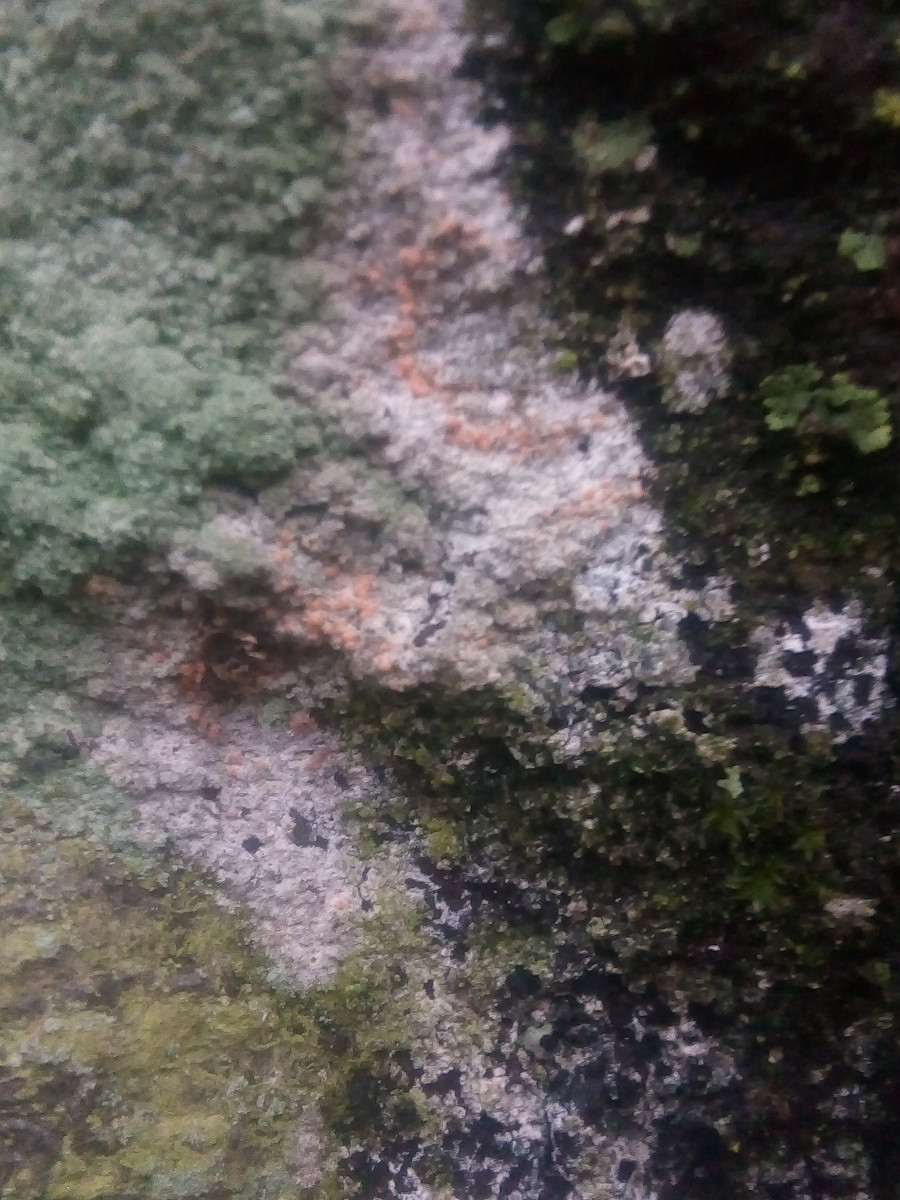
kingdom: Fungi
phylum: Ascomycota
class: Sordariomycetes
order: Hypocreales
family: Bionectriaceae
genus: Paranectria
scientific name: Paranectria oropensis
